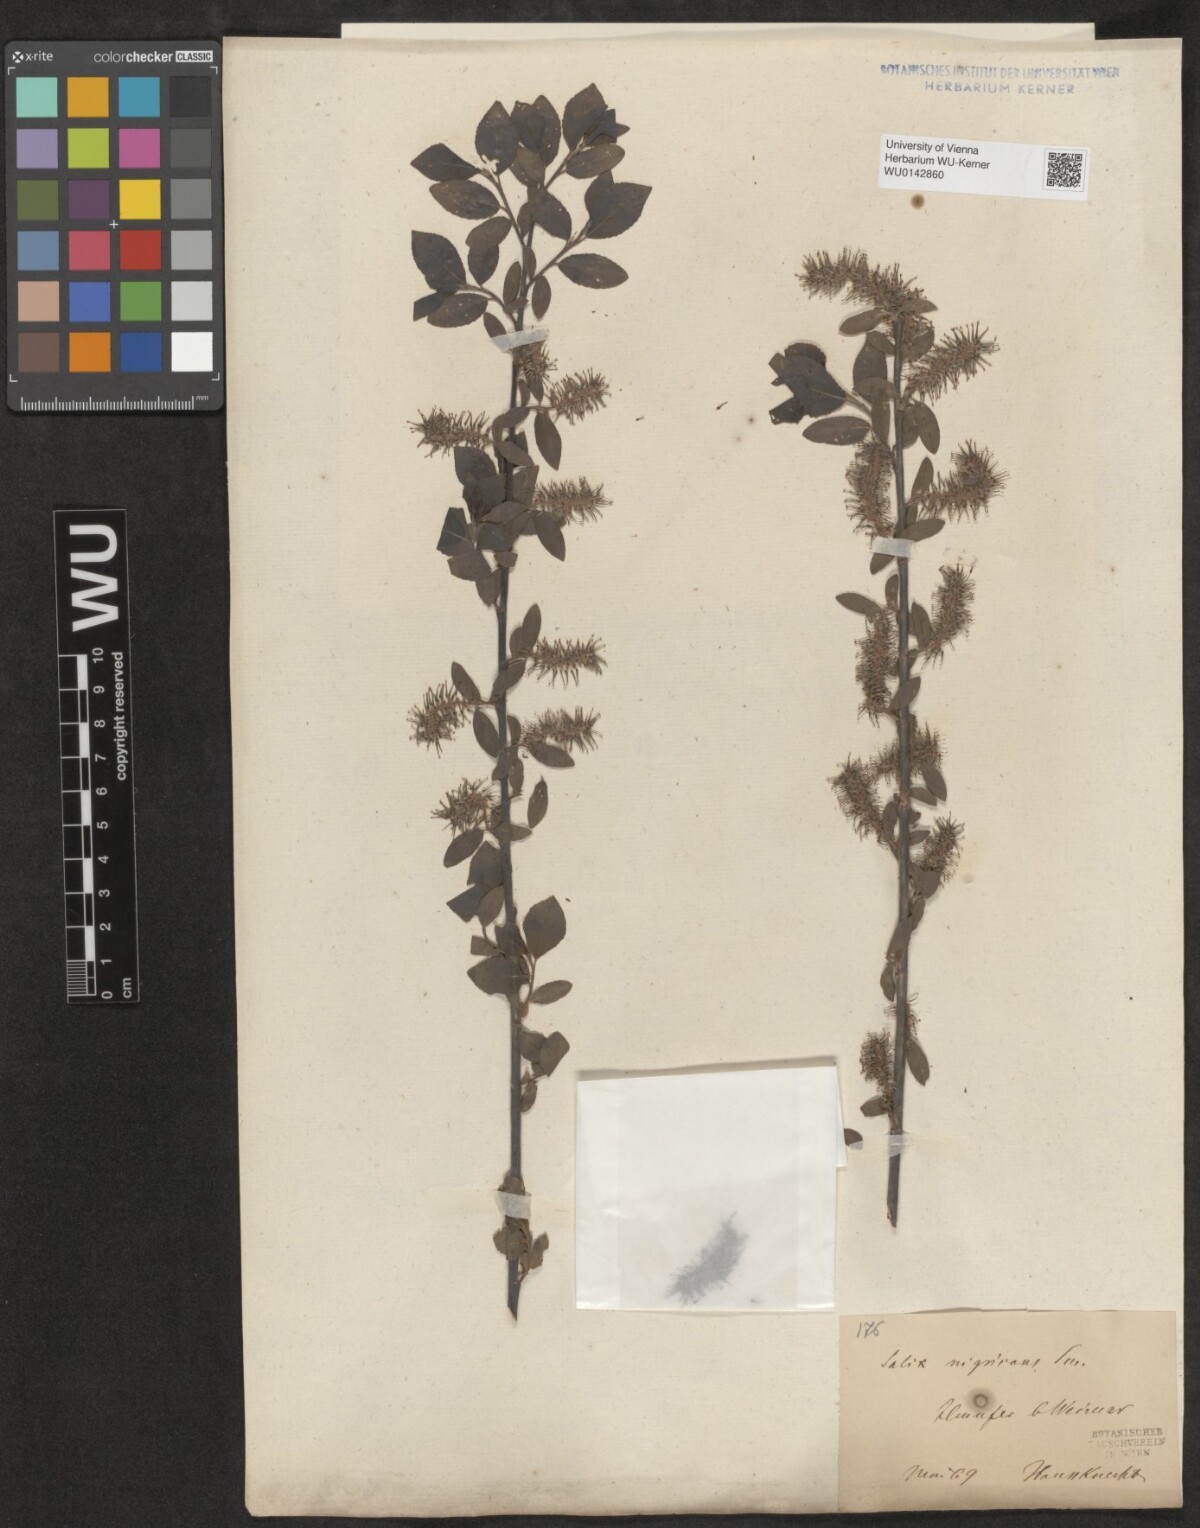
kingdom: Plantae
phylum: Tracheophyta
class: Magnoliopsida
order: Malpighiales
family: Salicaceae
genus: Salix
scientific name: Salix myrsinifolia
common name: Dark-leaved willow
